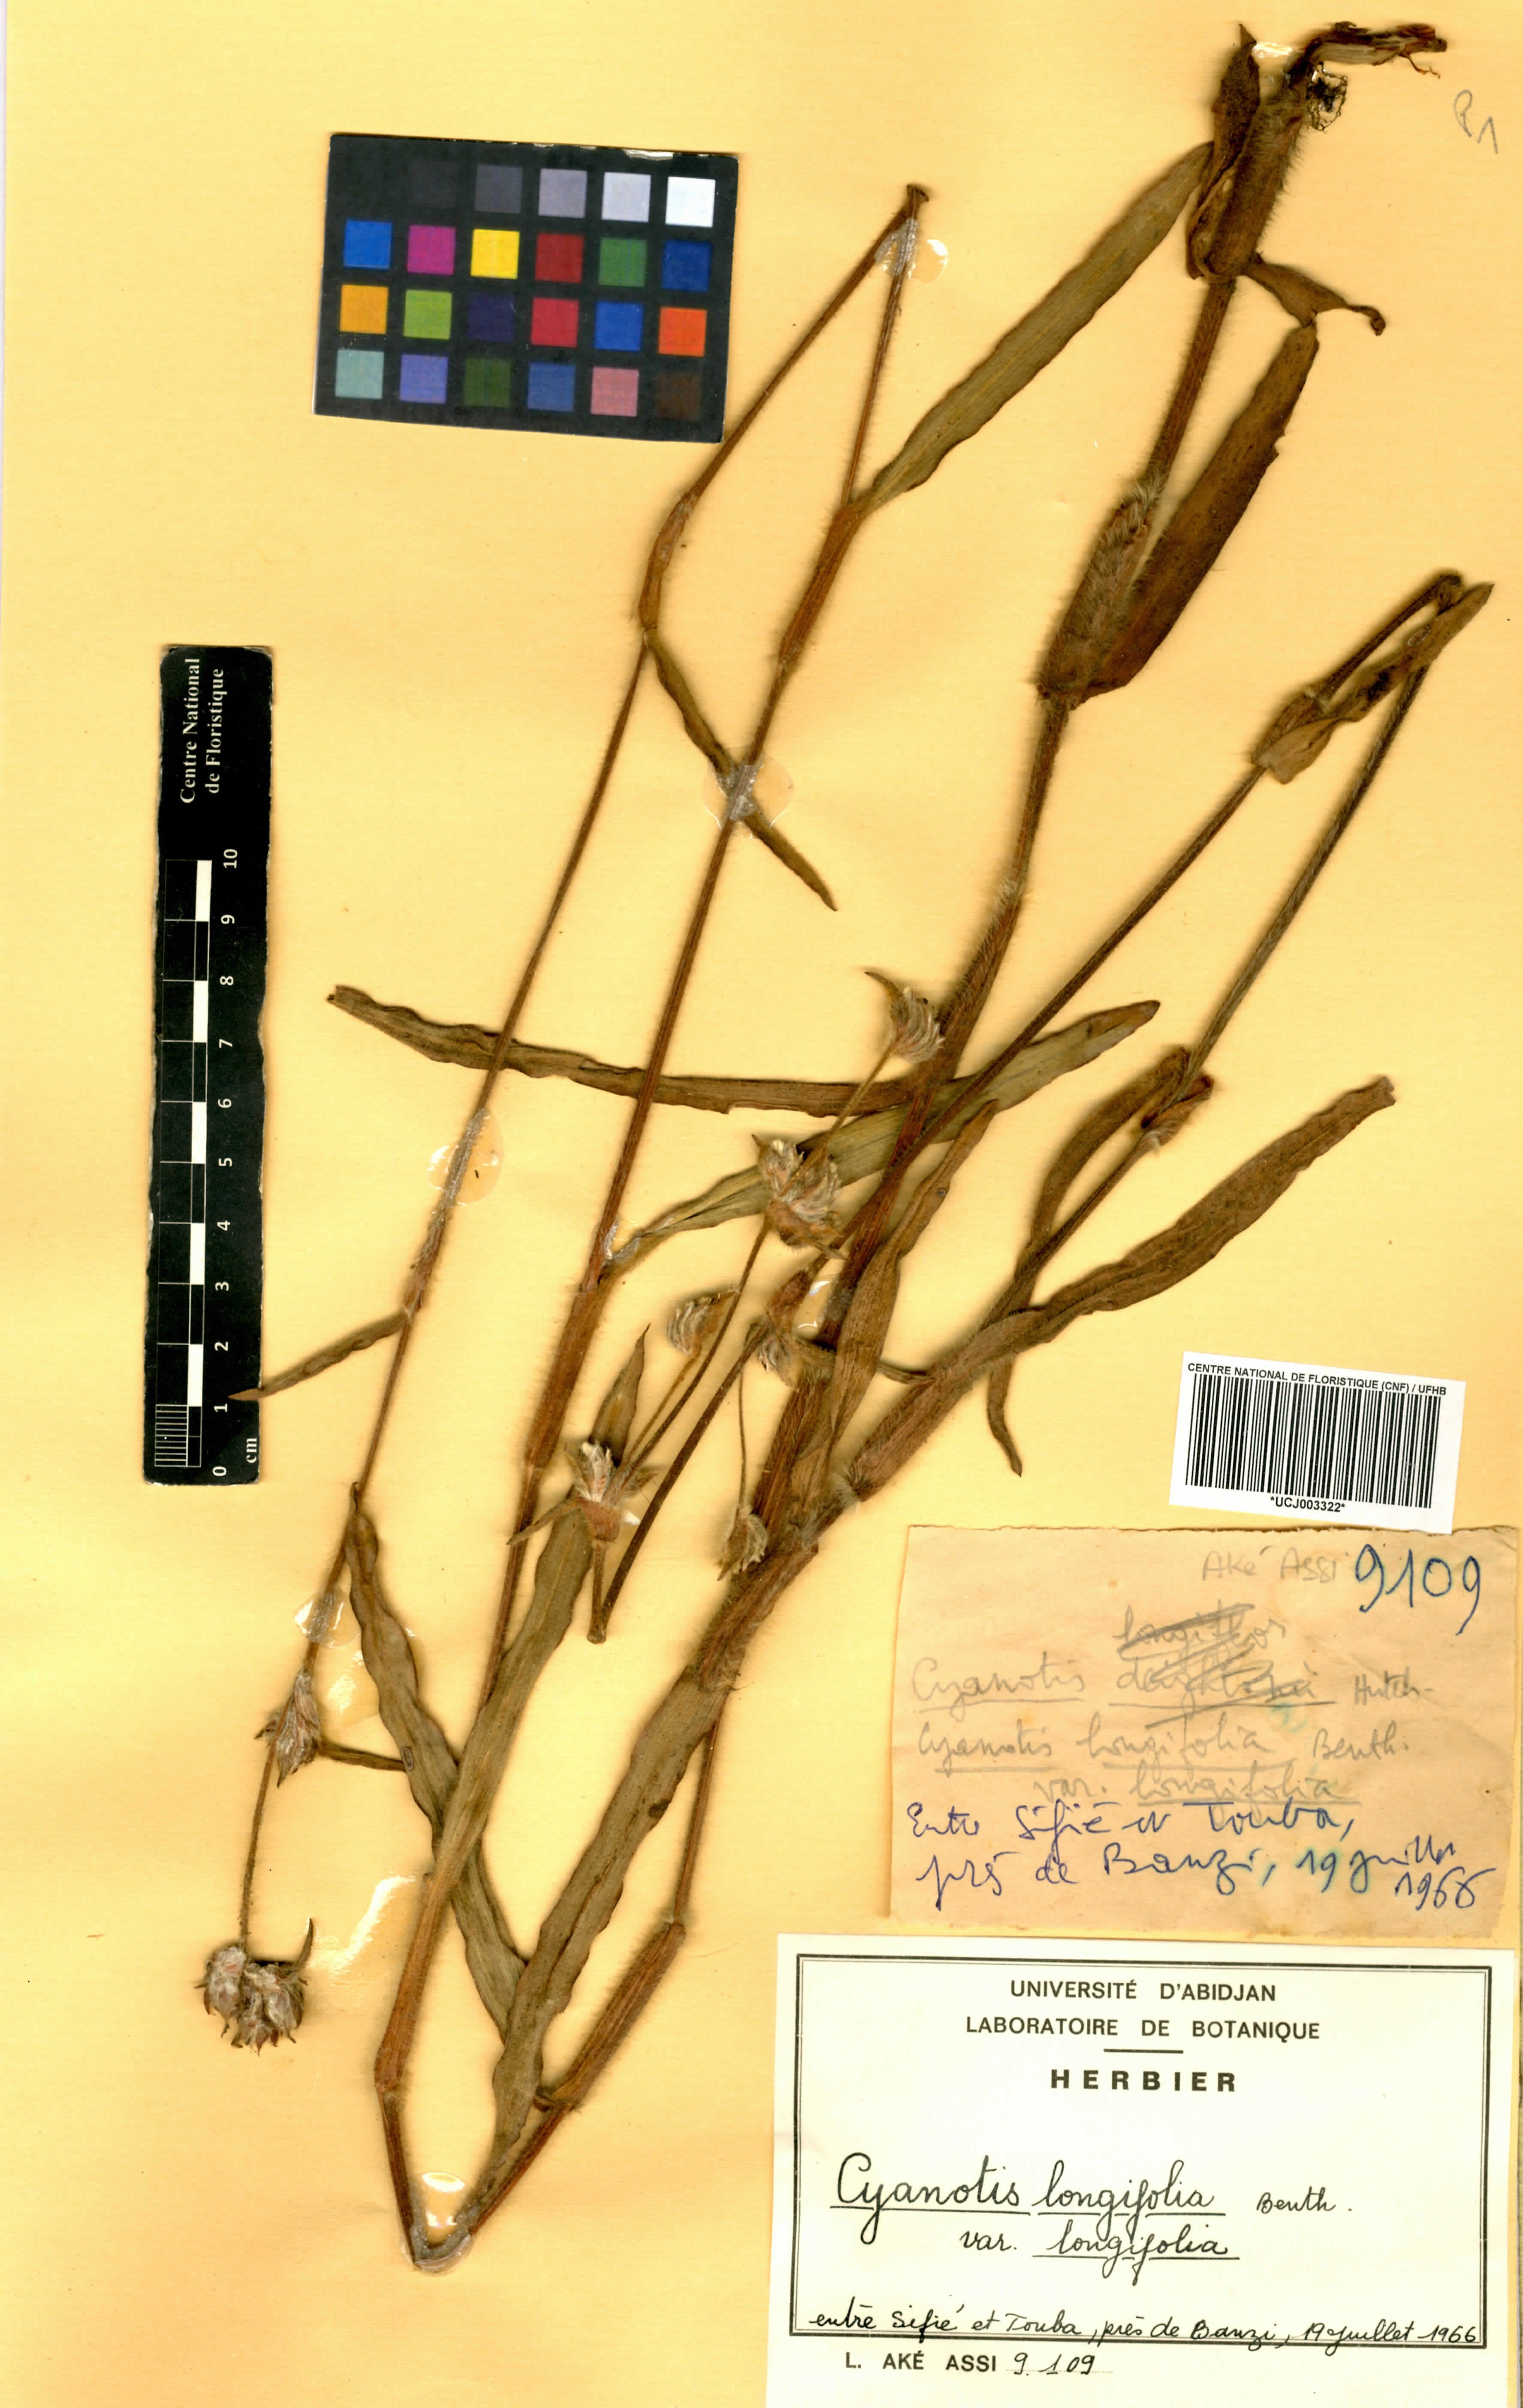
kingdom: Plantae
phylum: Tracheophyta
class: Liliopsida
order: Commelinales
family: Commelinaceae
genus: Cyanotis
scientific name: Cyanotis longifolia
